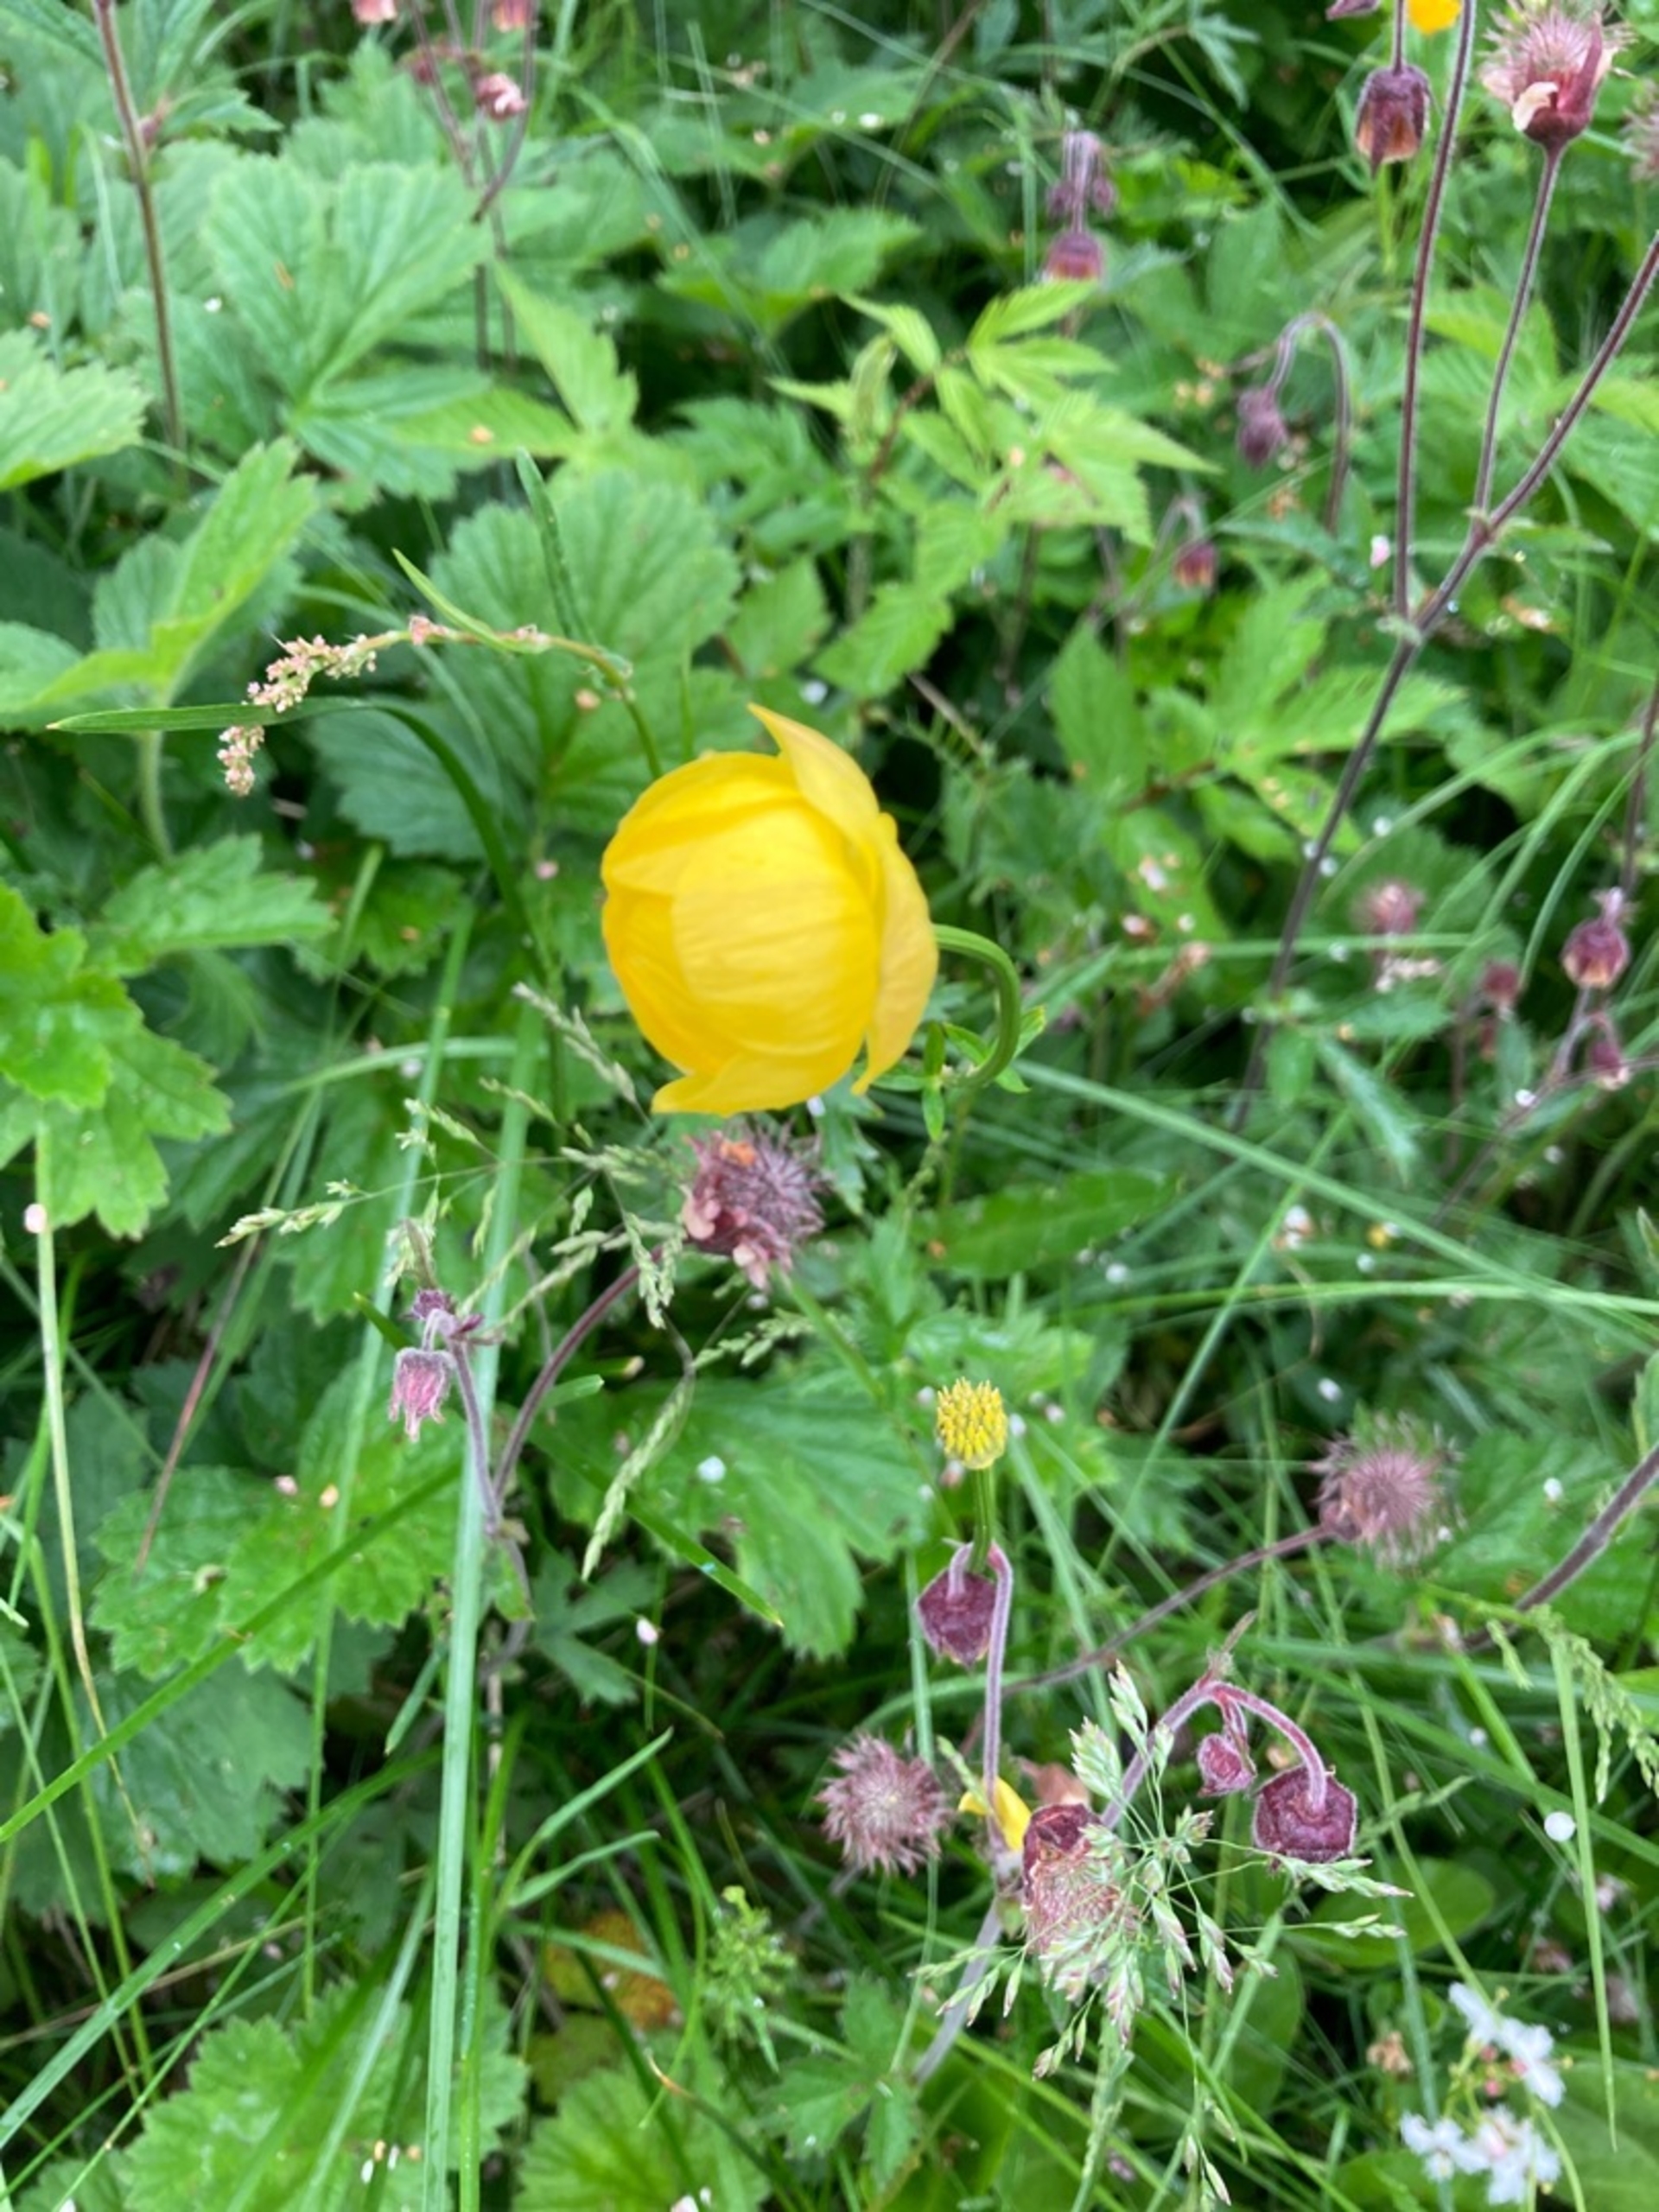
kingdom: Plantae
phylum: Tracheophyta
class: Magnoliopsida
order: Ranunculales
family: Ranunculaceae
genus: Trollius
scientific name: Trollius europaeus
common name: Engblomme
